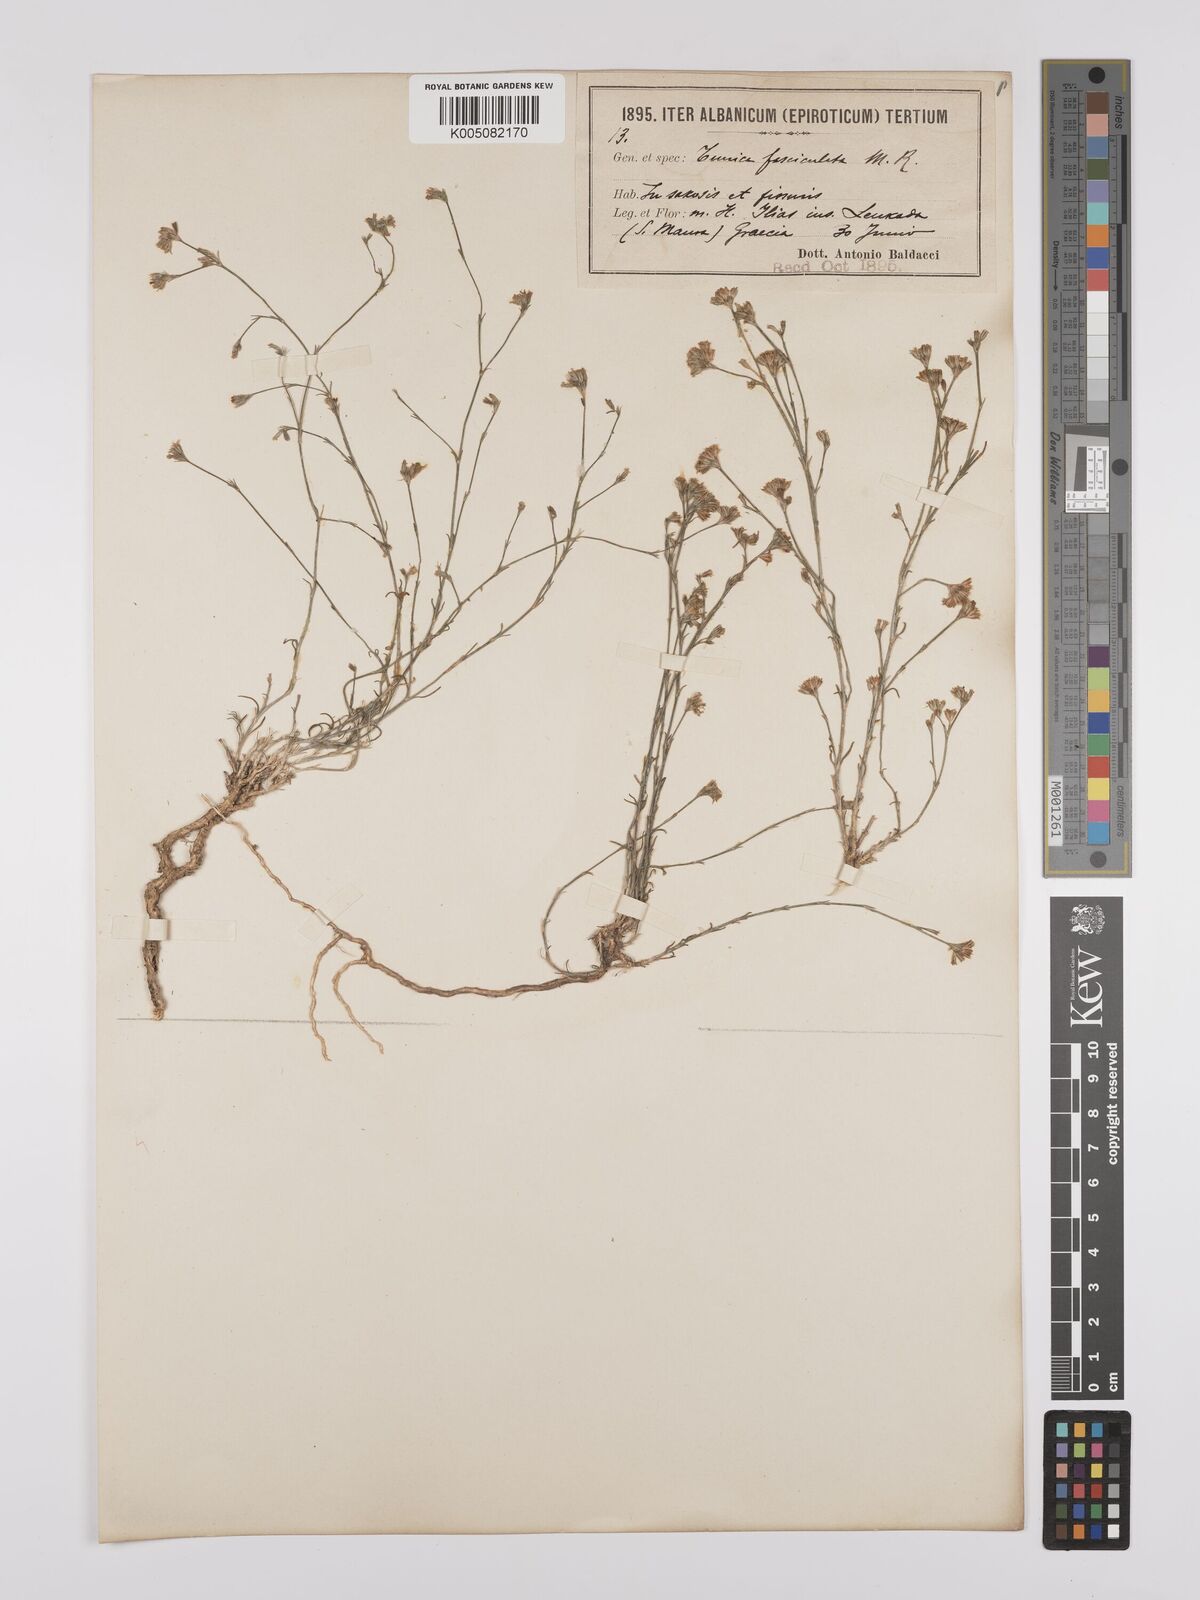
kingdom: Plantae
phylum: Tracheophyta
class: Magnoliopsida
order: Caryophyllales
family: Caryophyllaceae
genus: Petrorhagia
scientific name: Petrorhagia fasciculata
